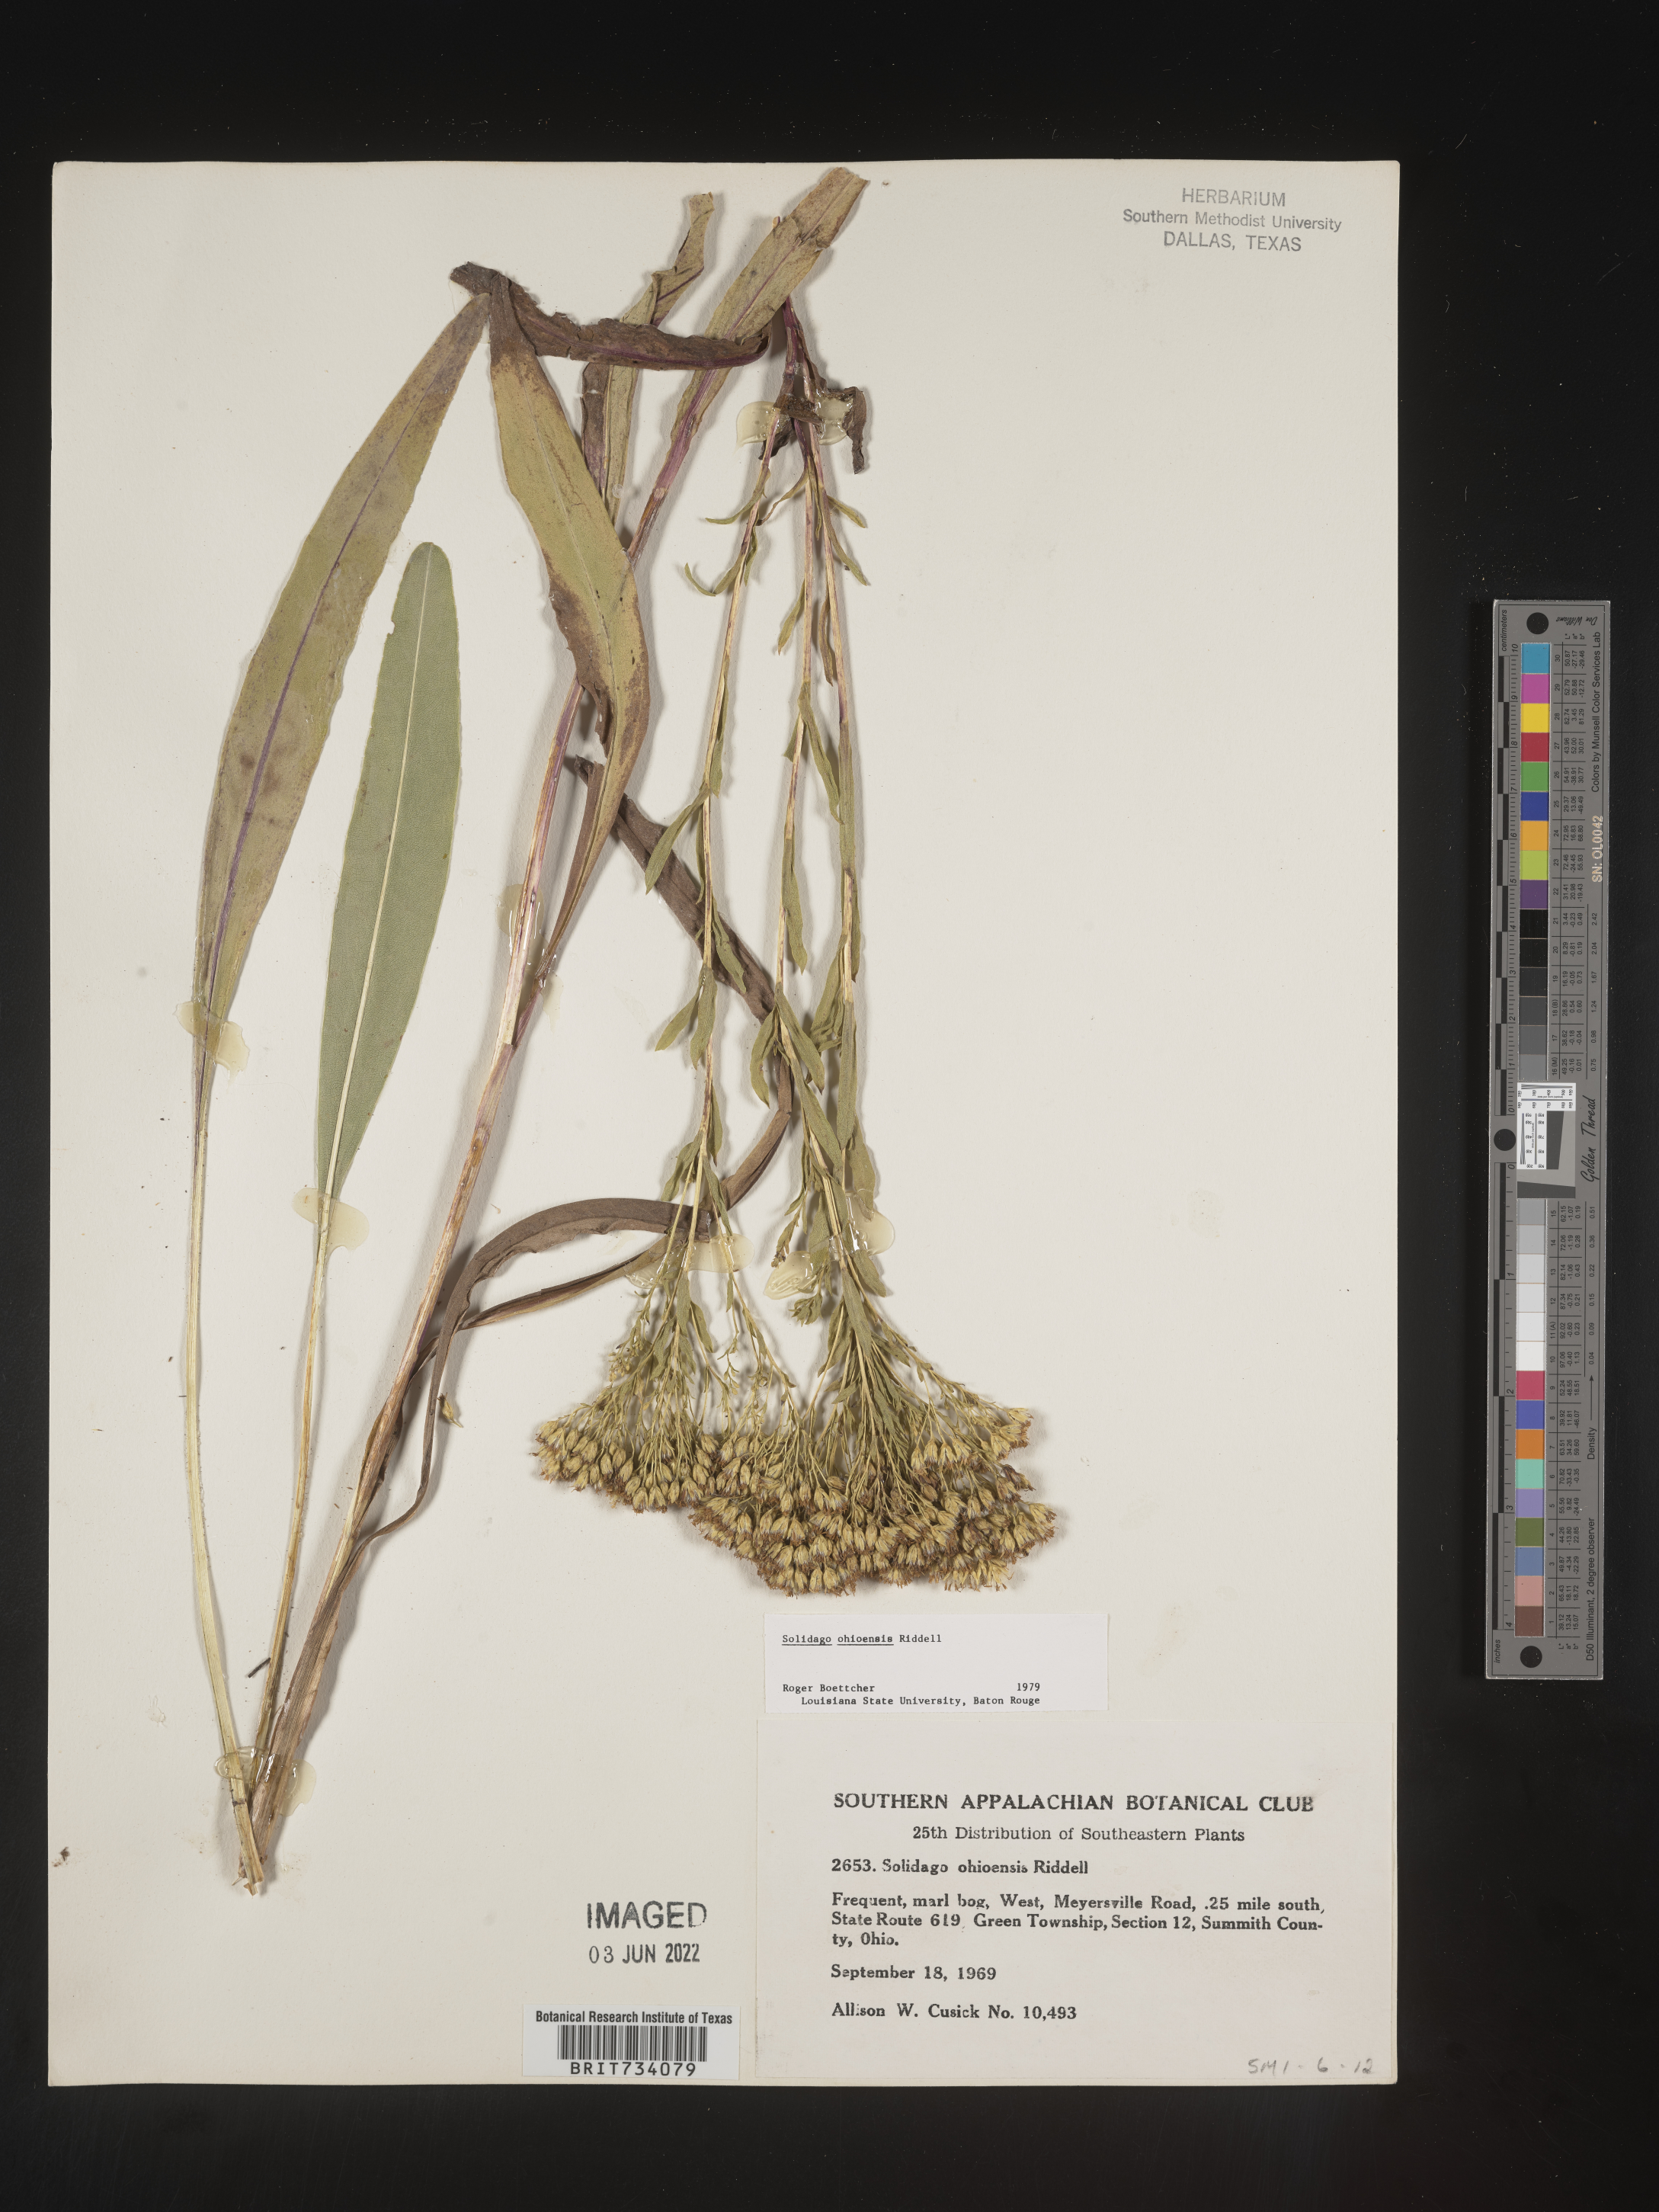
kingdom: Plantae
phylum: Tracheophyta
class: Magnoliopsida
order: Asterales
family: Asteraceae
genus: Solidago
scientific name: Solidago ohioensis
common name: Ohio goldenrod
